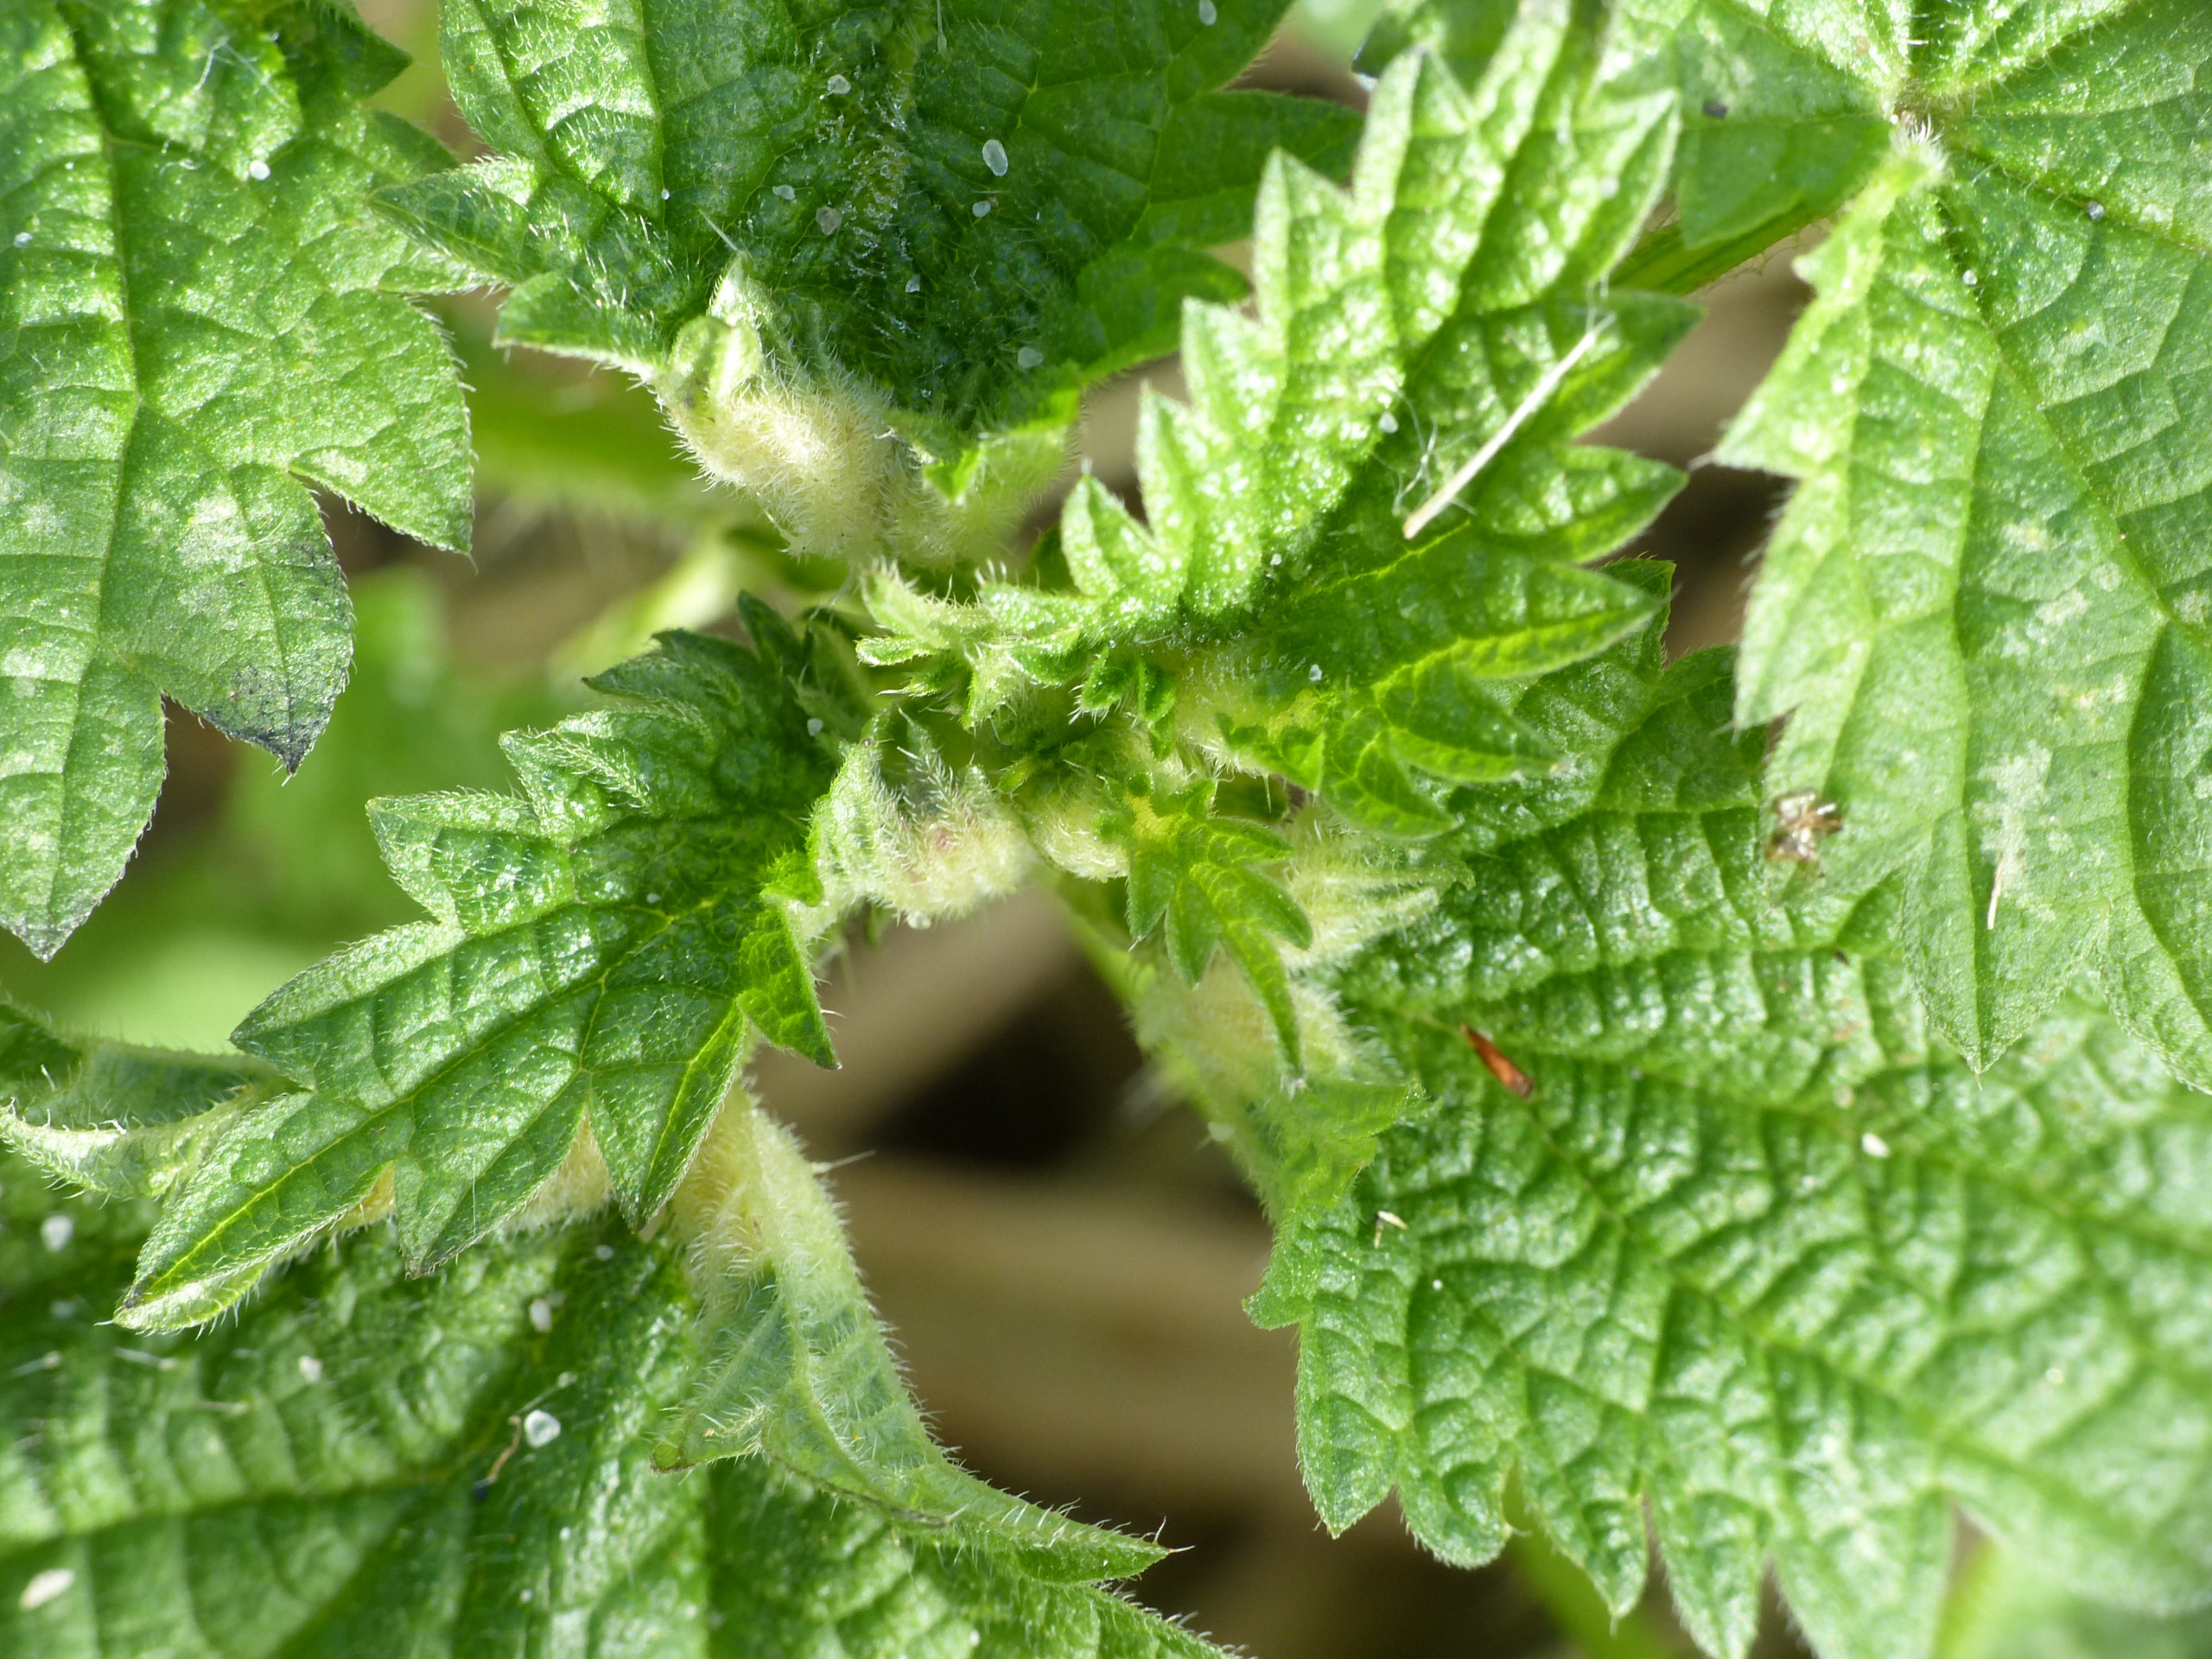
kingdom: Animalia
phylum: Arthropoda
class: Insecta
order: Diptera
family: Cecidomyiidae
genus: Dasineura
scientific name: Dasineura dioicae
